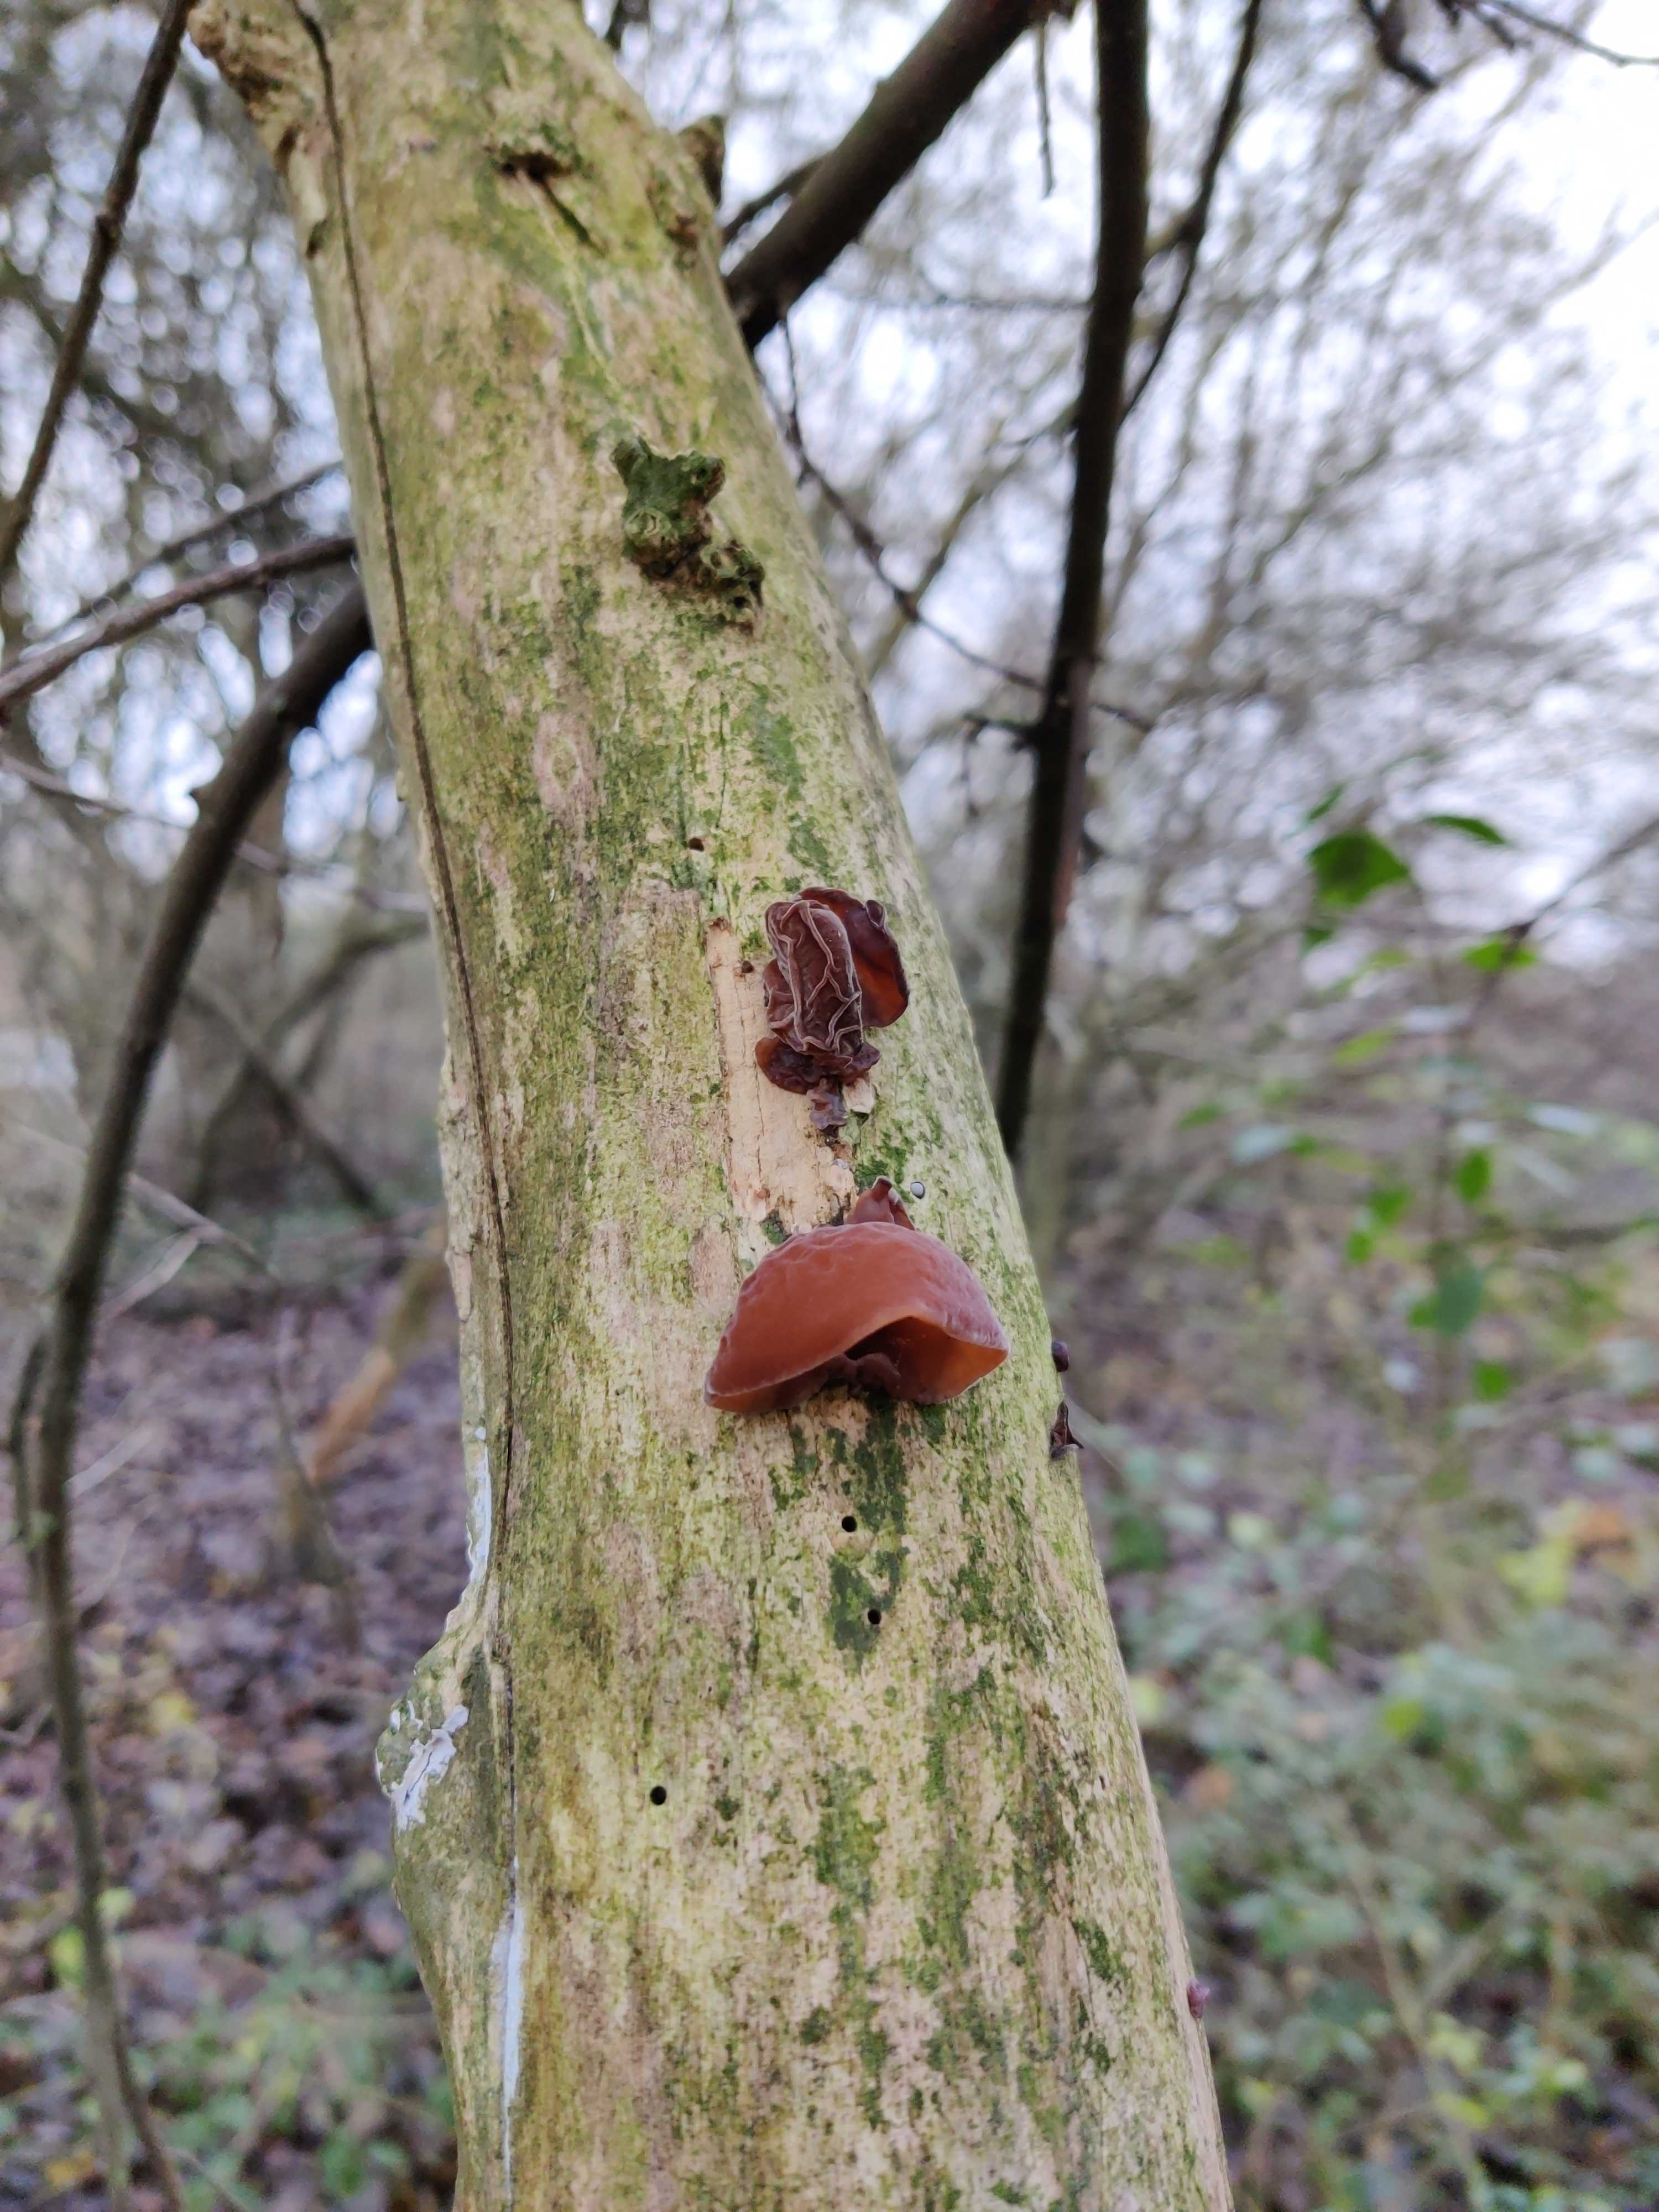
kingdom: Fungi
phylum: Basidiomycota
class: Agaricomycetes
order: Auriculariales
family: Auriculariaceae
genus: Auricularia
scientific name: Auricularia auricula-judae
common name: almindelig judasøre
